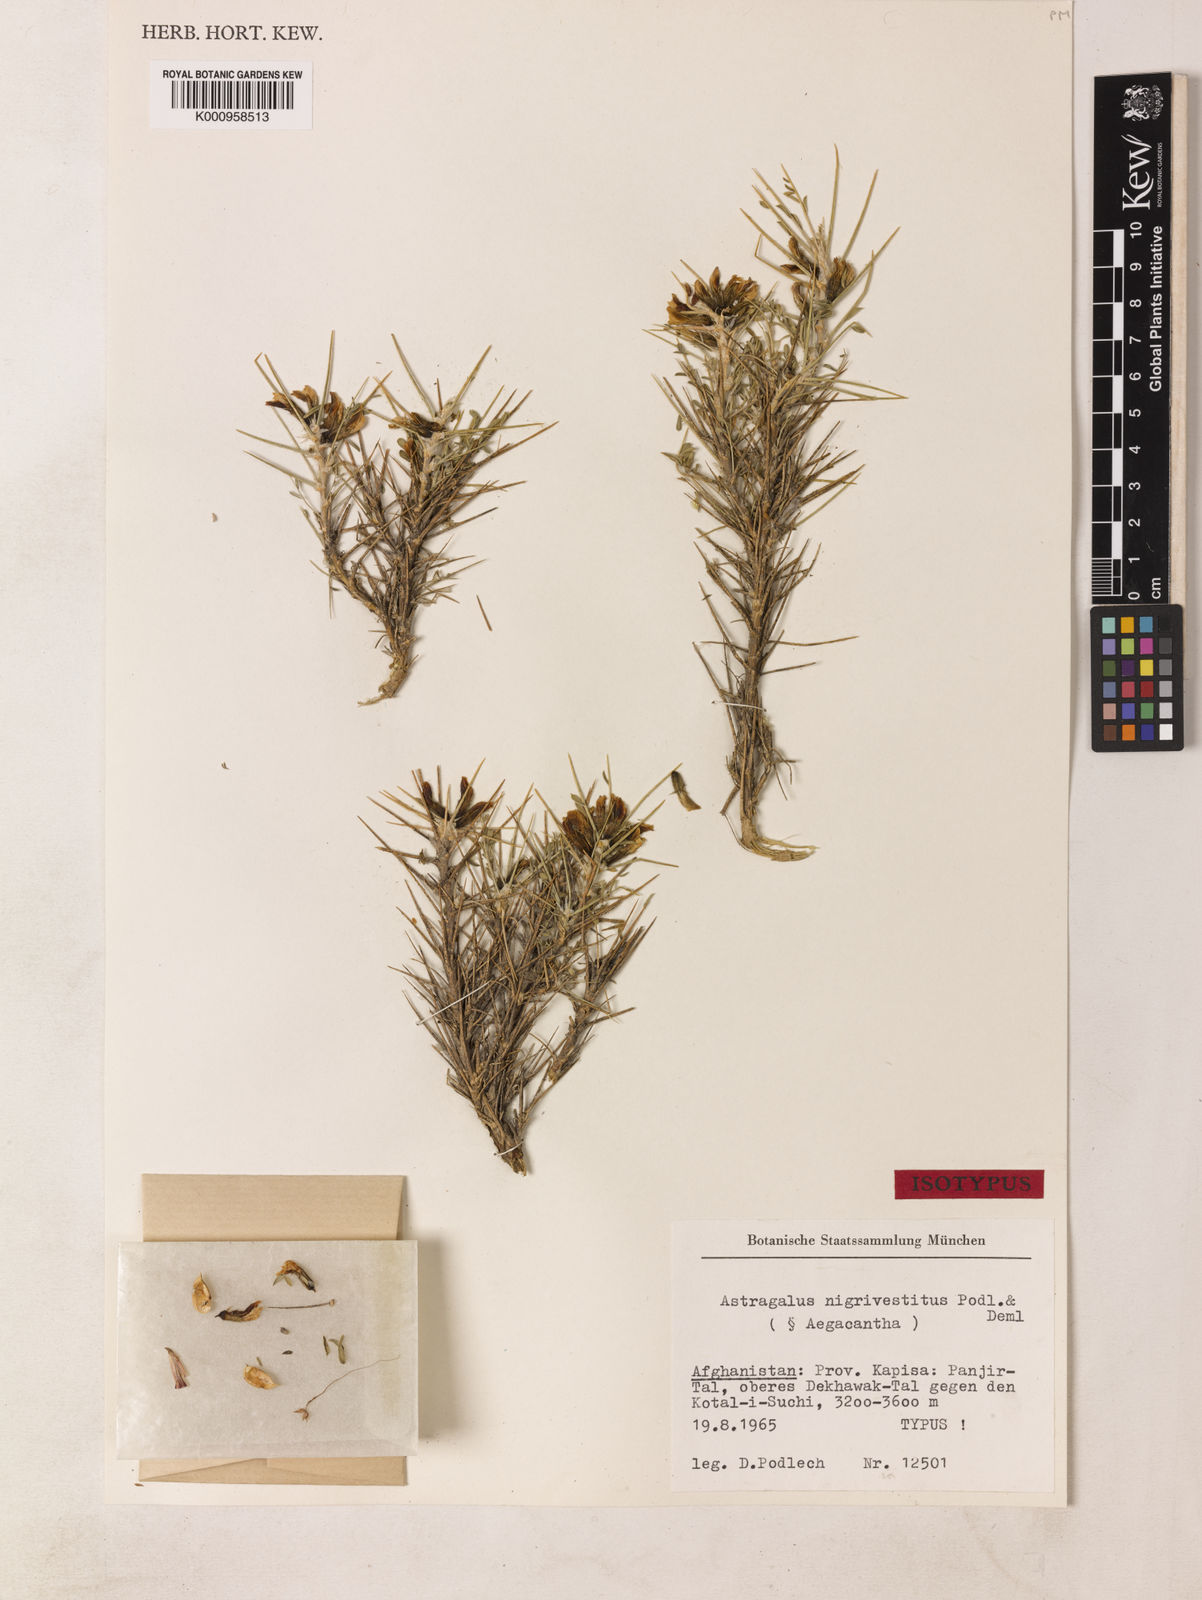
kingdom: Plantae
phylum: Tracheophyta
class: Magnoliopsida
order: Fabales
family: Fabaceae
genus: Astragalus
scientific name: Astragalus
